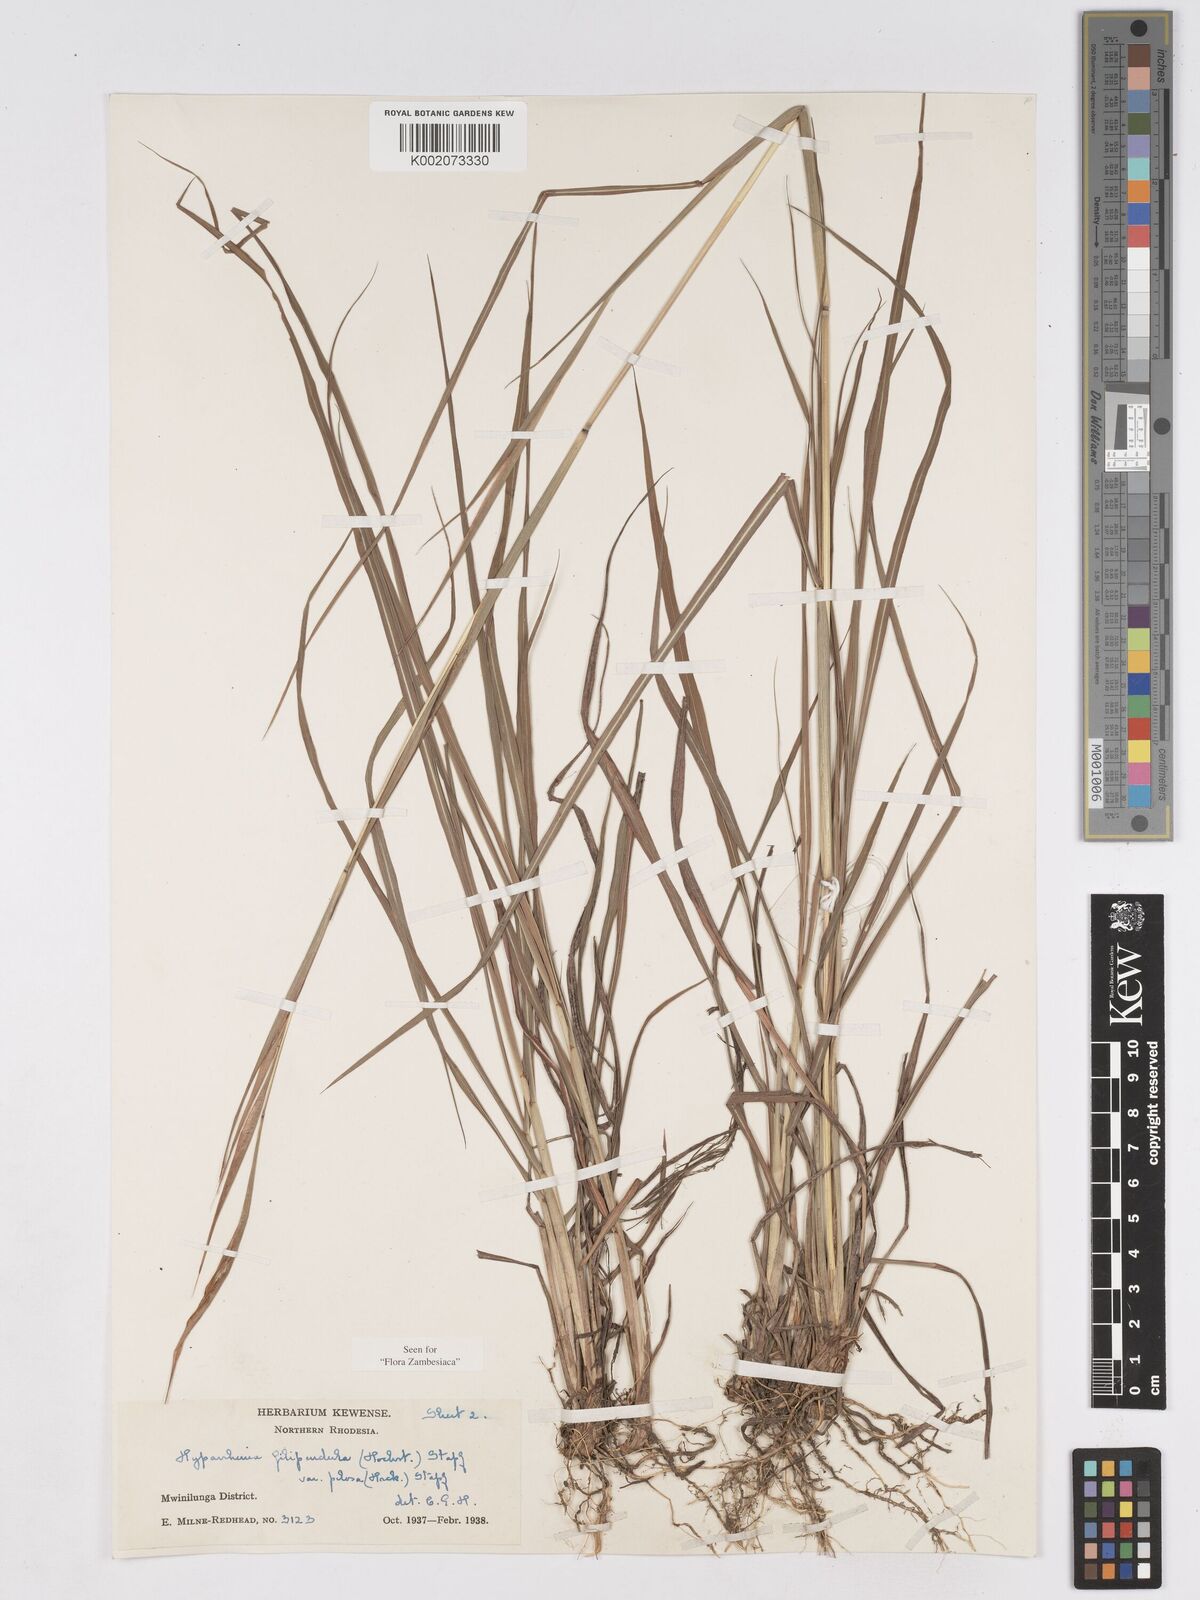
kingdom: Plantae
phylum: Tracheophyta
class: Liliopsida
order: Poales
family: Poaceae
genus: Hyparrhenia
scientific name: Hyparrhenia filipendula
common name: Tambookie grass
